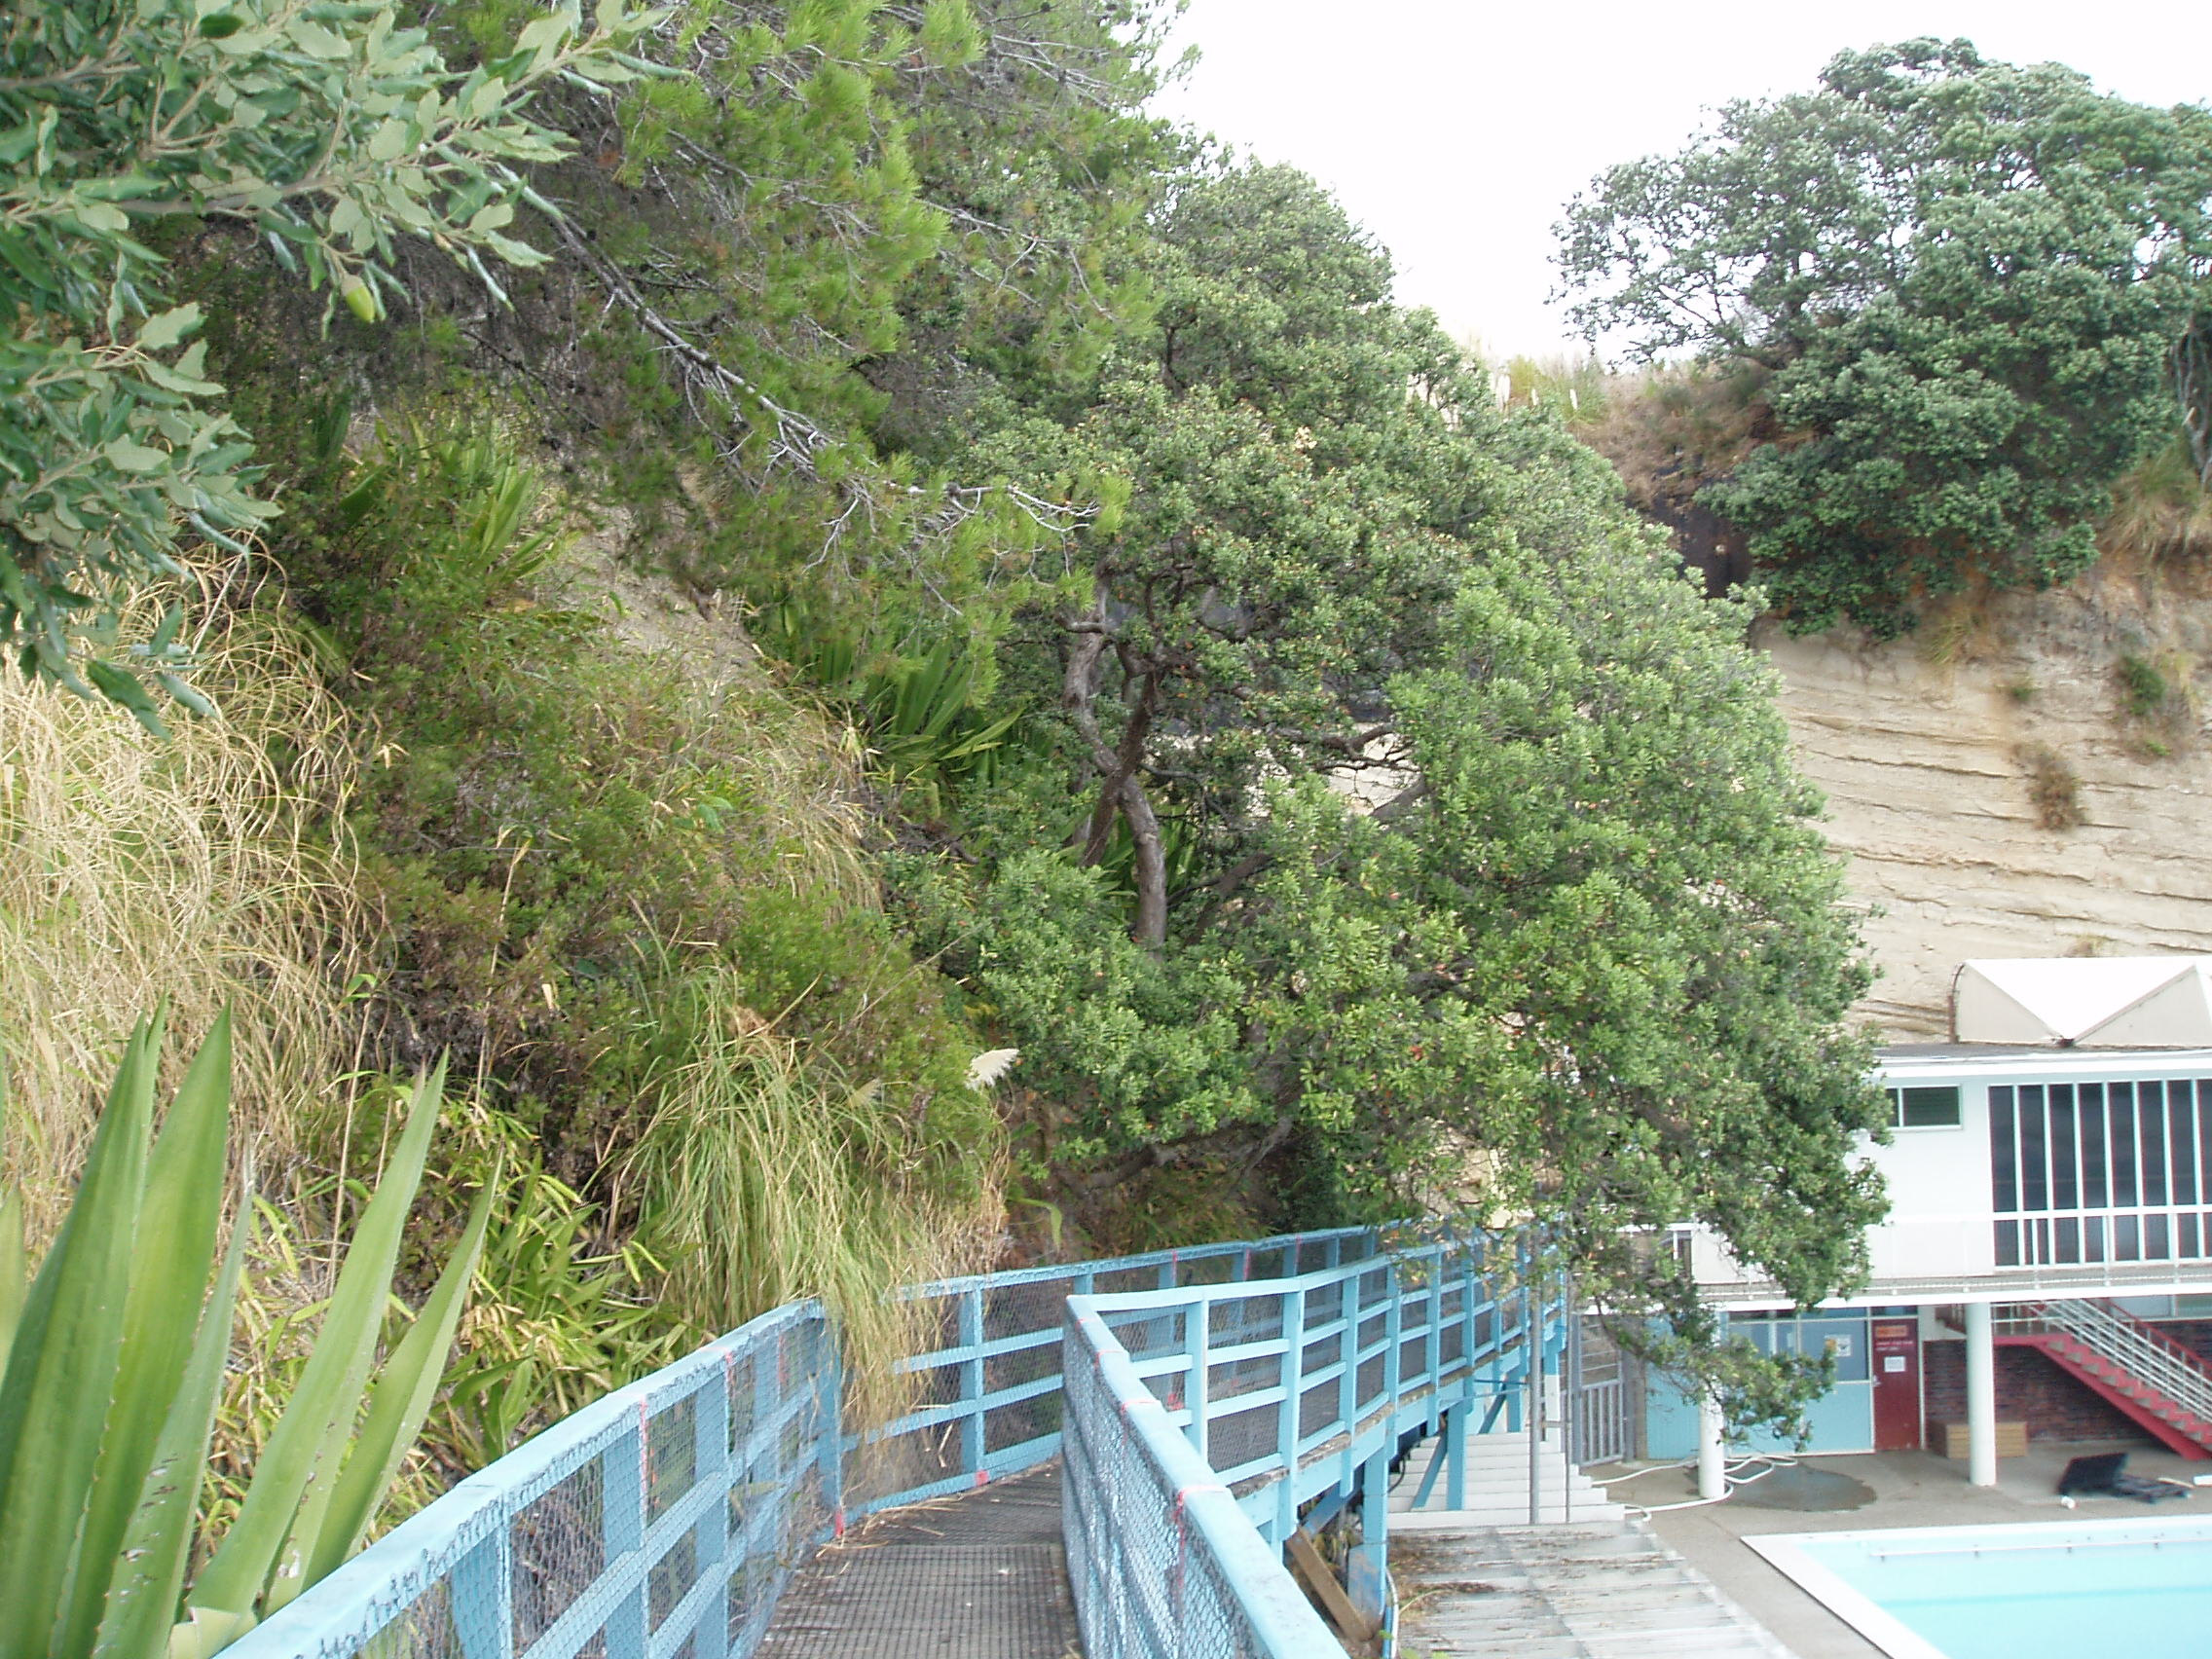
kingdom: Plantae
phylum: Tracheophyta
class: Liliopsida
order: Asparagales
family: Asparagaceae
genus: Furcraea
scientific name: Furcraea selloa
